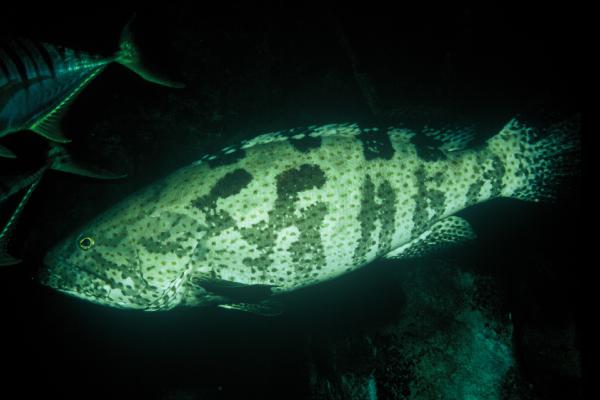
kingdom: Animalia
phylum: Chordata
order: Perciformes
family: Serranidae
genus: Epinephelus
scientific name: Epinephelus coioides
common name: Orange-spotted grouper
